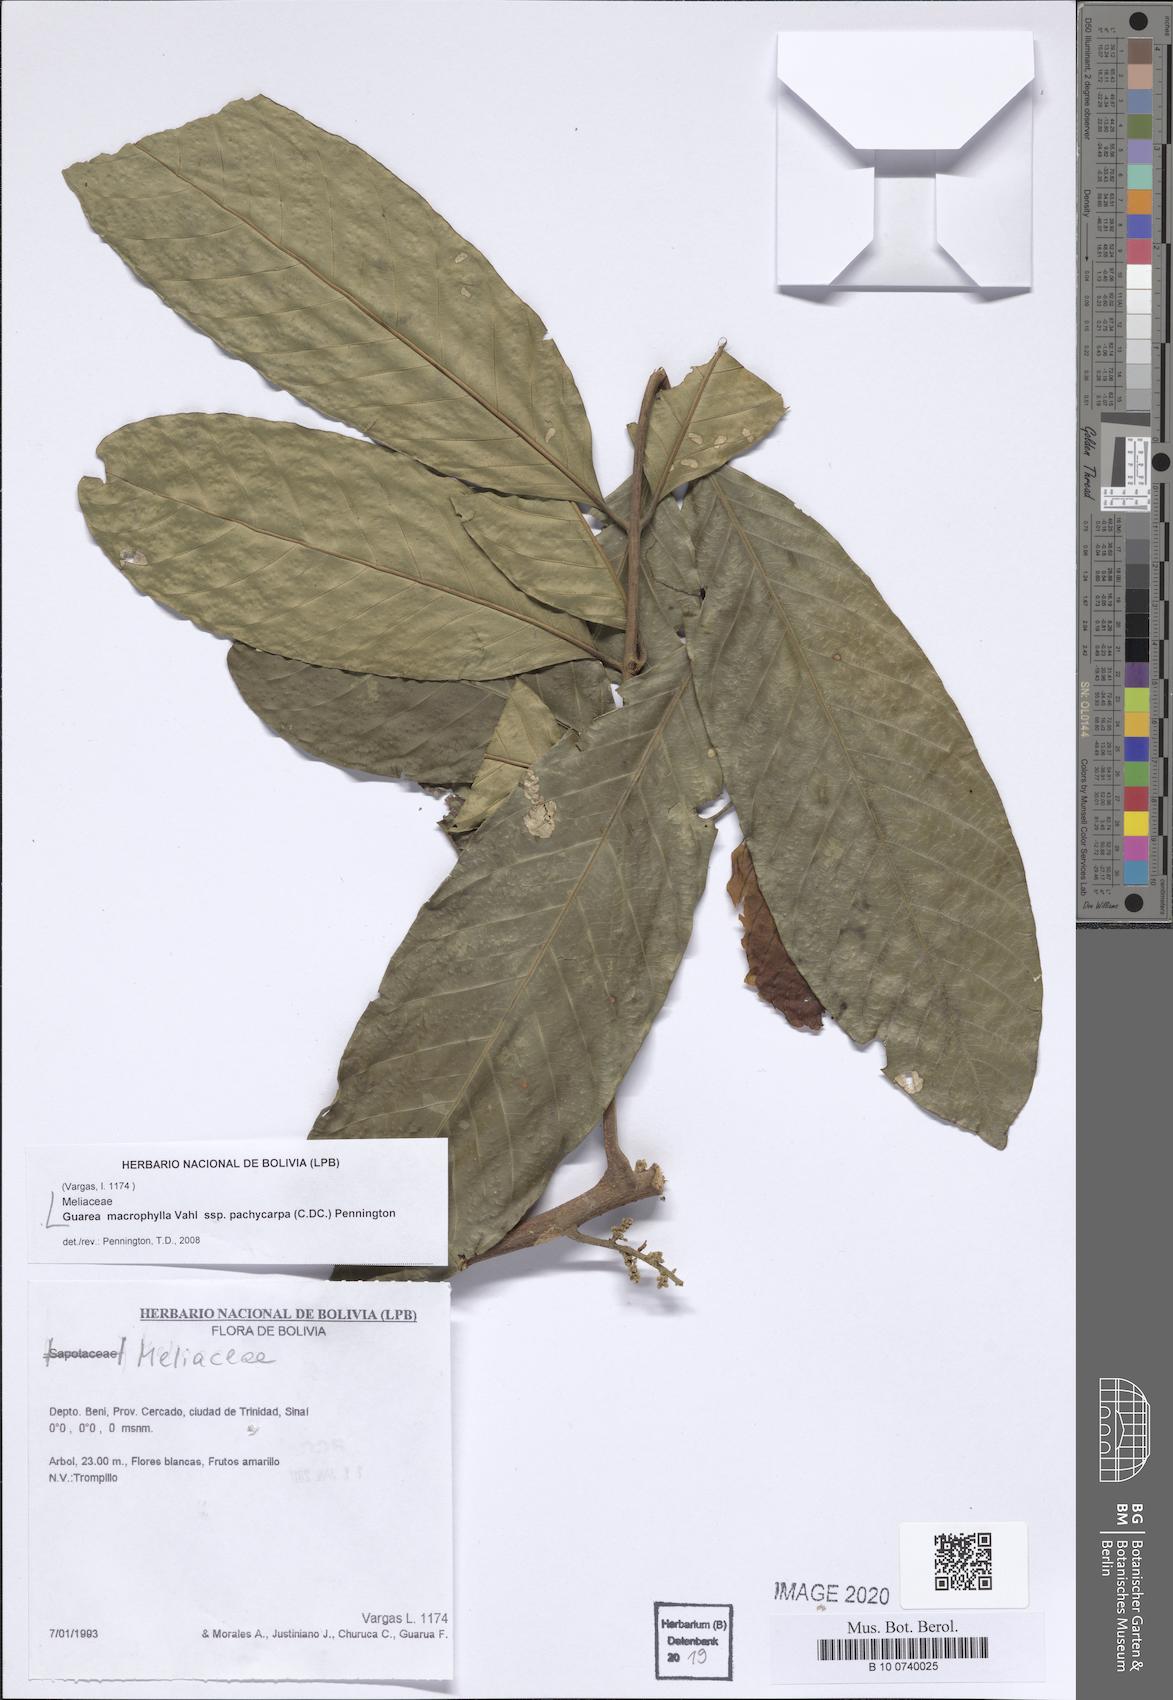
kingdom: Plantae
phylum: Tracheophyta
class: Magnoliopsida
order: Sapindales
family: Meliaceae
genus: Guarea
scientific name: Guarea macrophylla
